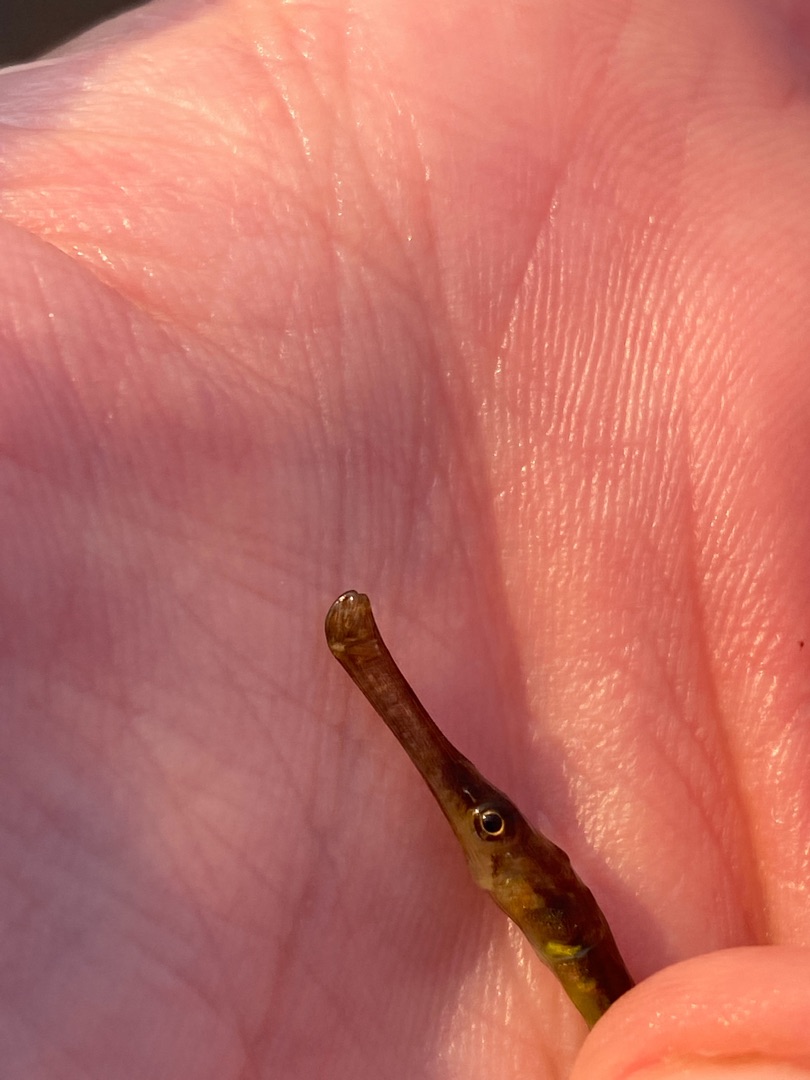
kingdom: Animalia
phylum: Chordata
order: Syngnathiformes
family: Syngnathidae
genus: Syngnathus
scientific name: Syngnathus typhle
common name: Almindelig tangnål
